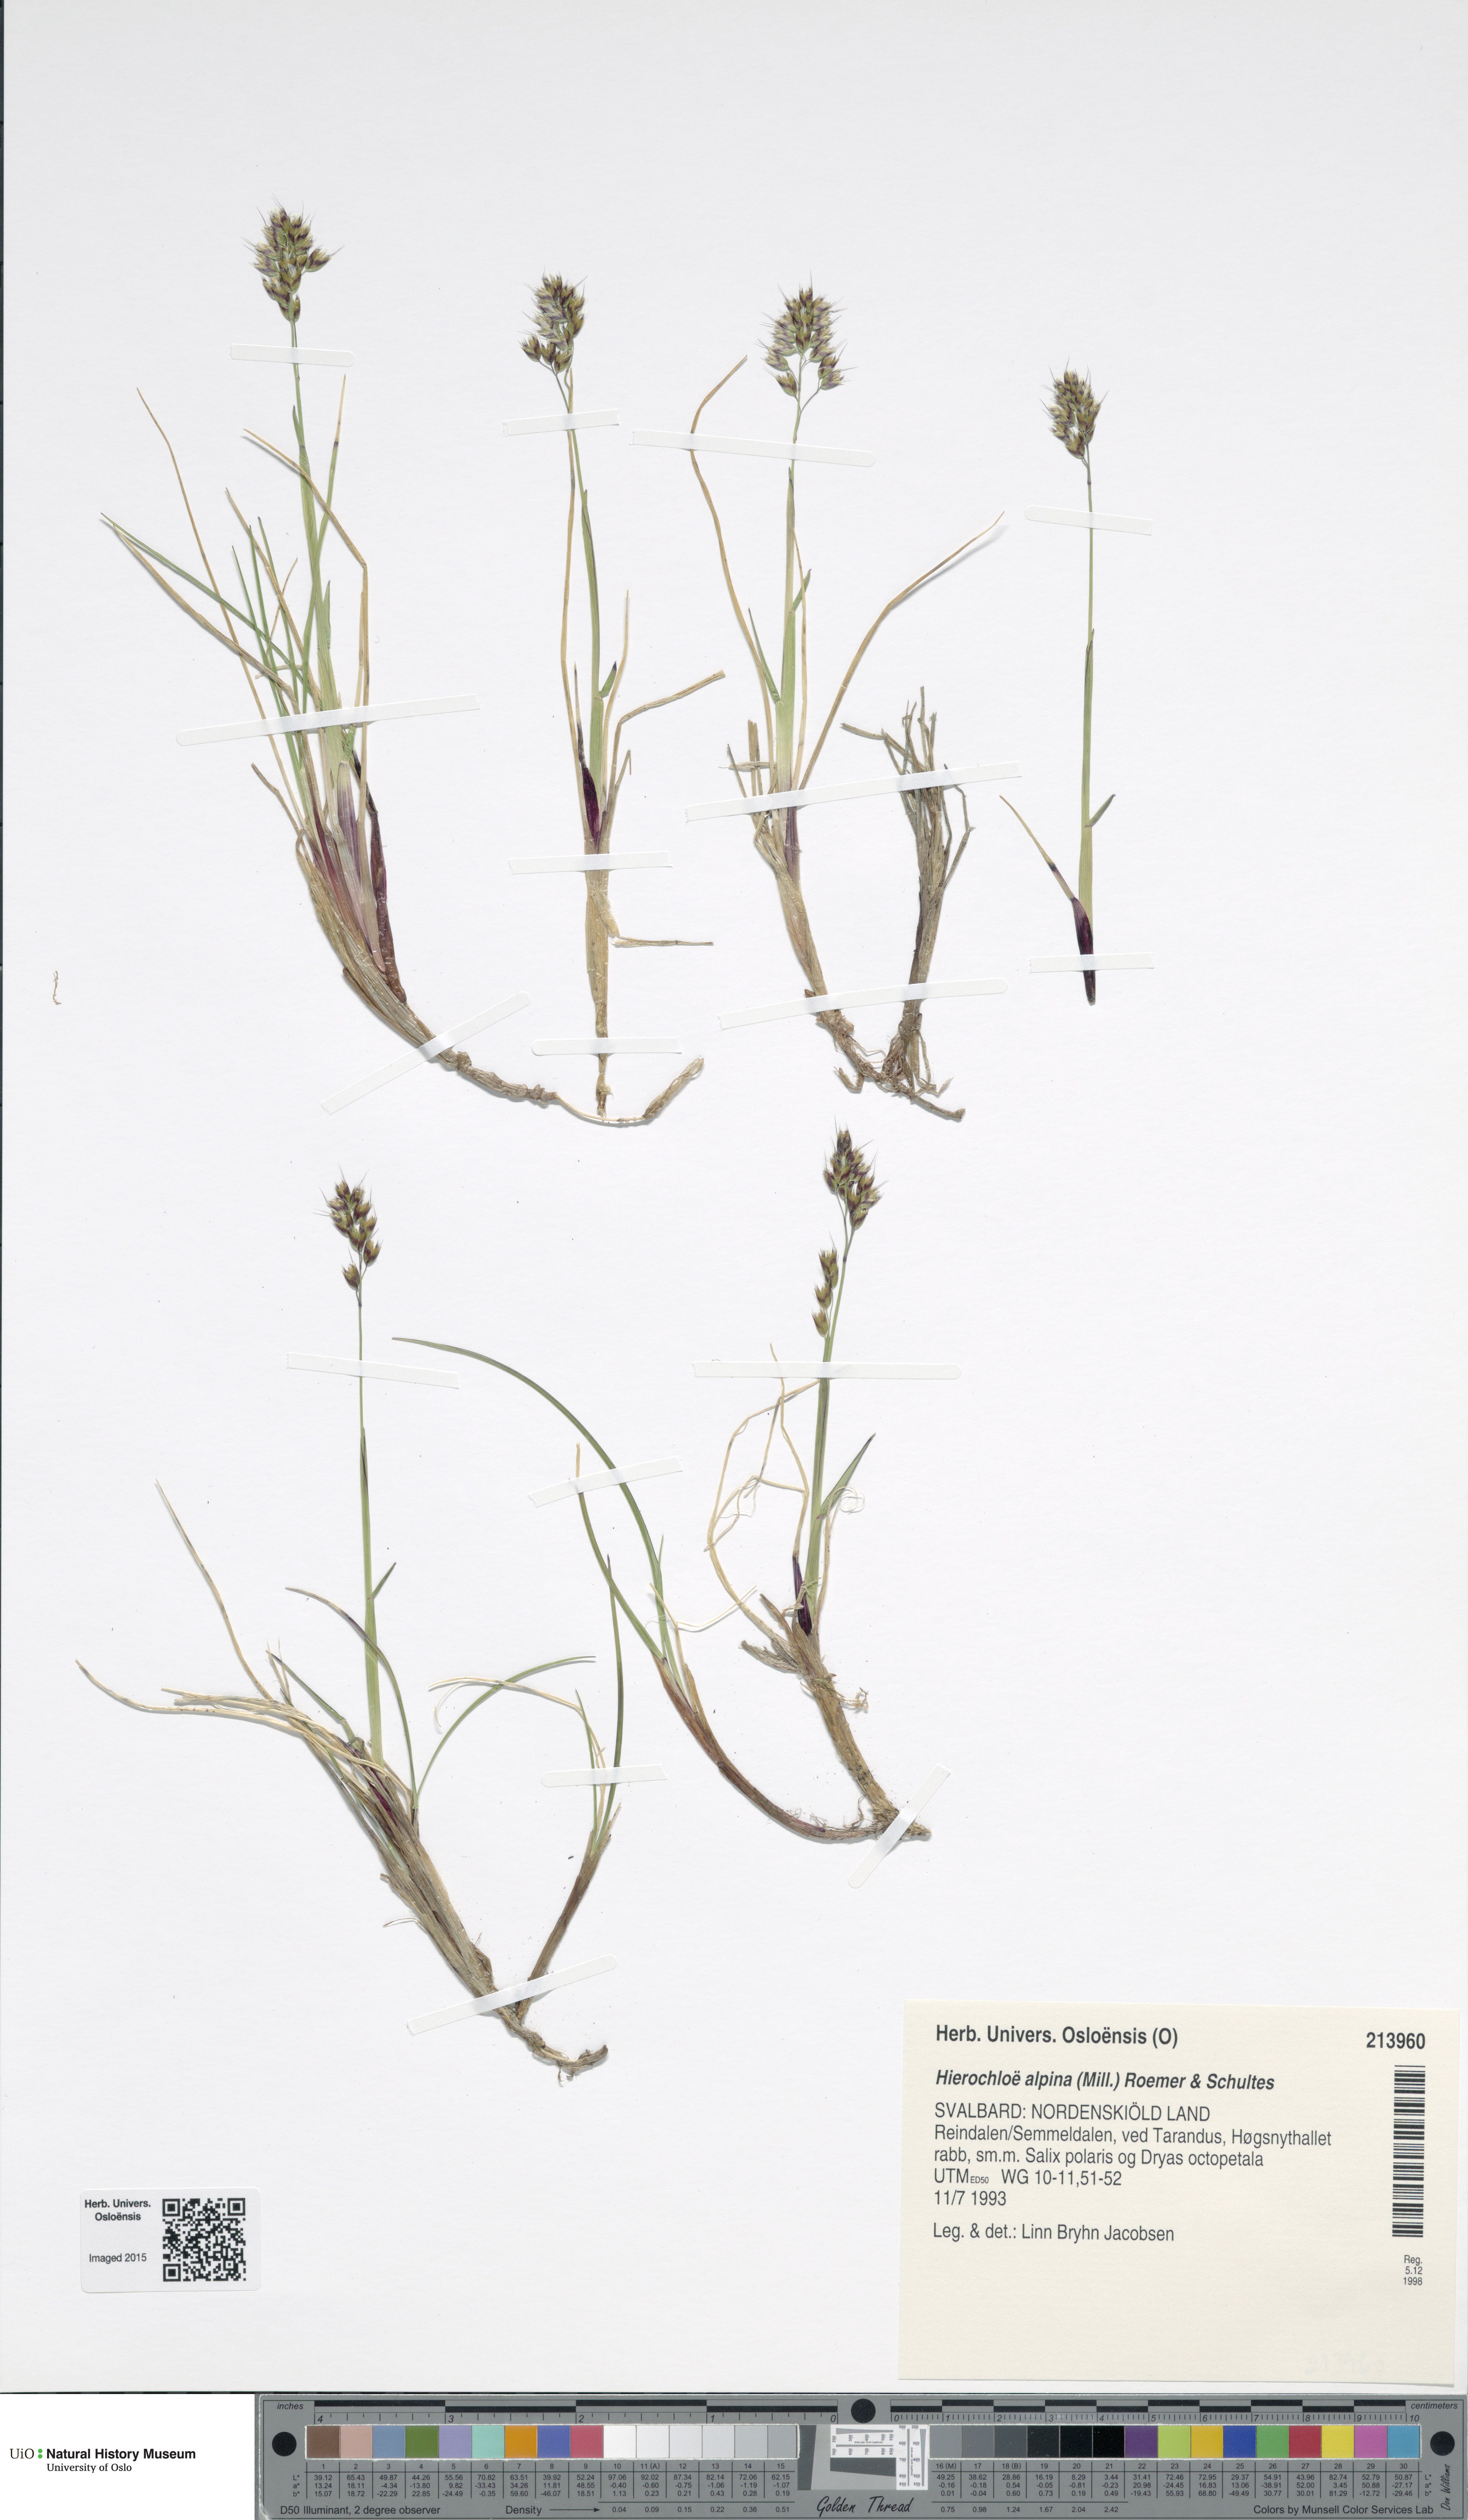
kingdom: Plantae
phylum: Tracheophyta
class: Liliopsida
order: Poales
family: Poaceae
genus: Anthoxanthum
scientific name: Anthoxanthum monticola
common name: Alpine sweetgrass
